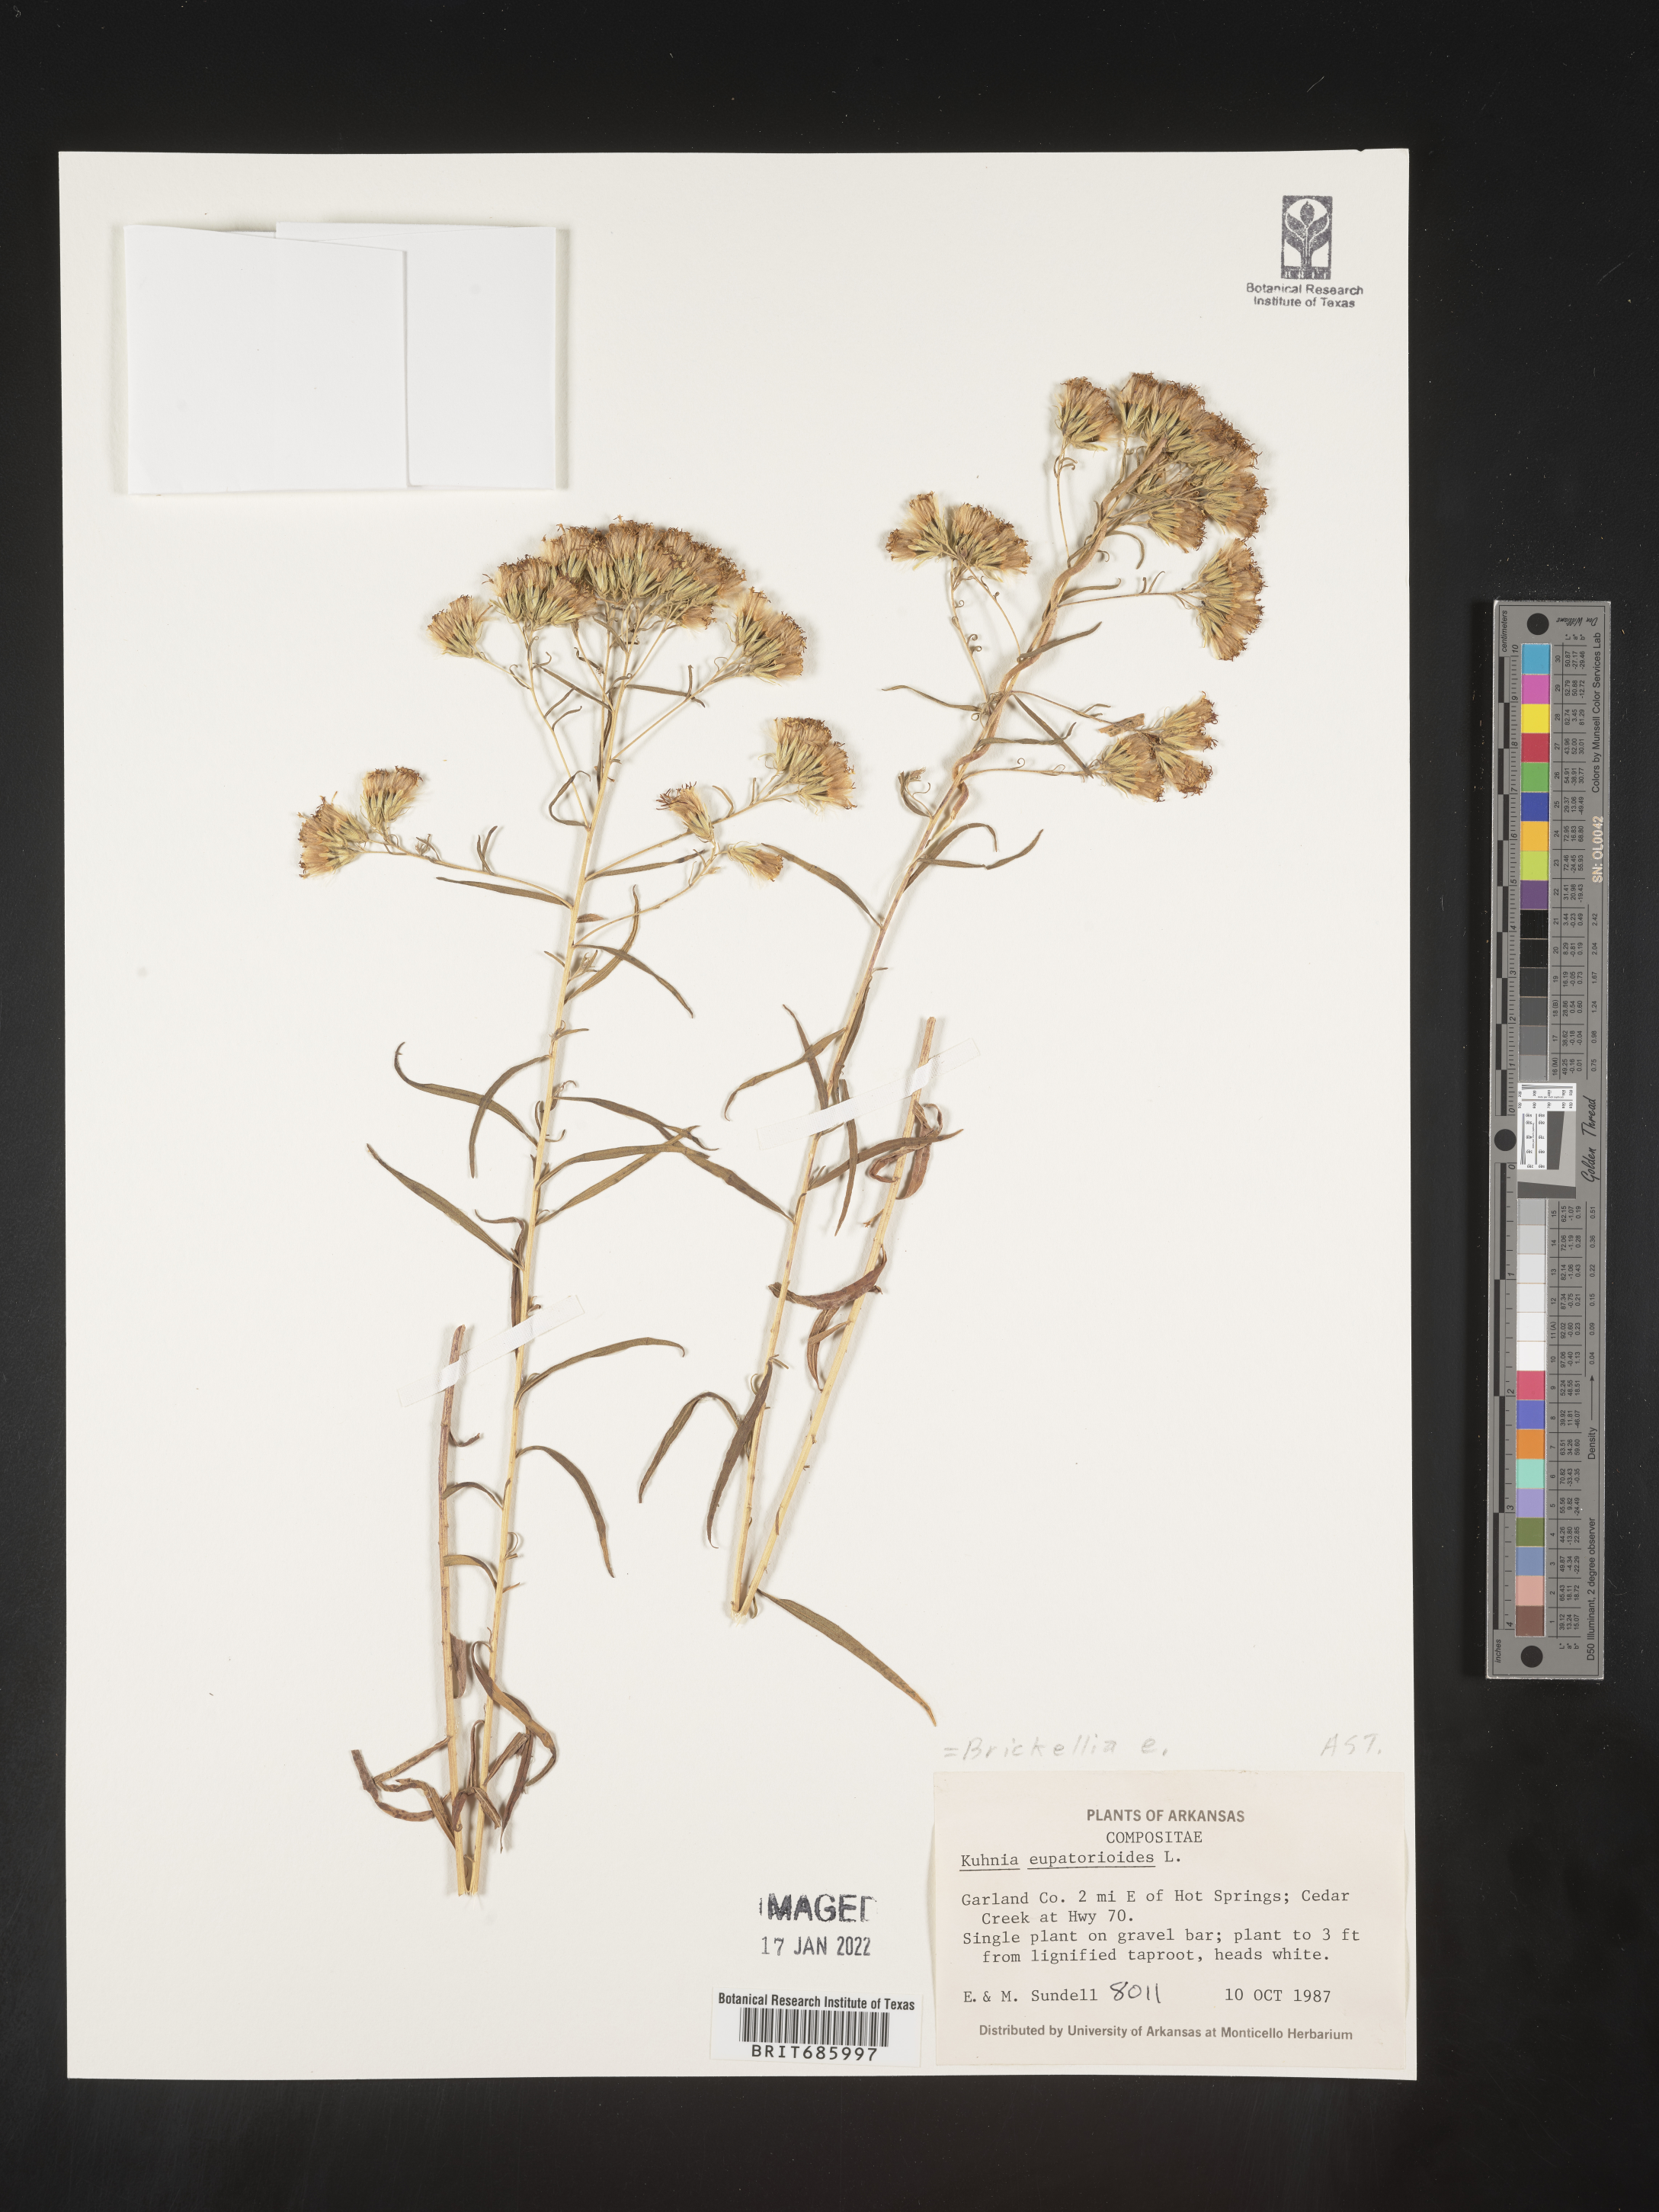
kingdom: Plantae
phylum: Tracheophyta
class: Magnoliopsida
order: Asterales
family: Asteraceae
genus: Brickellia
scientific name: Brickellia eupatorioides
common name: False boneset
